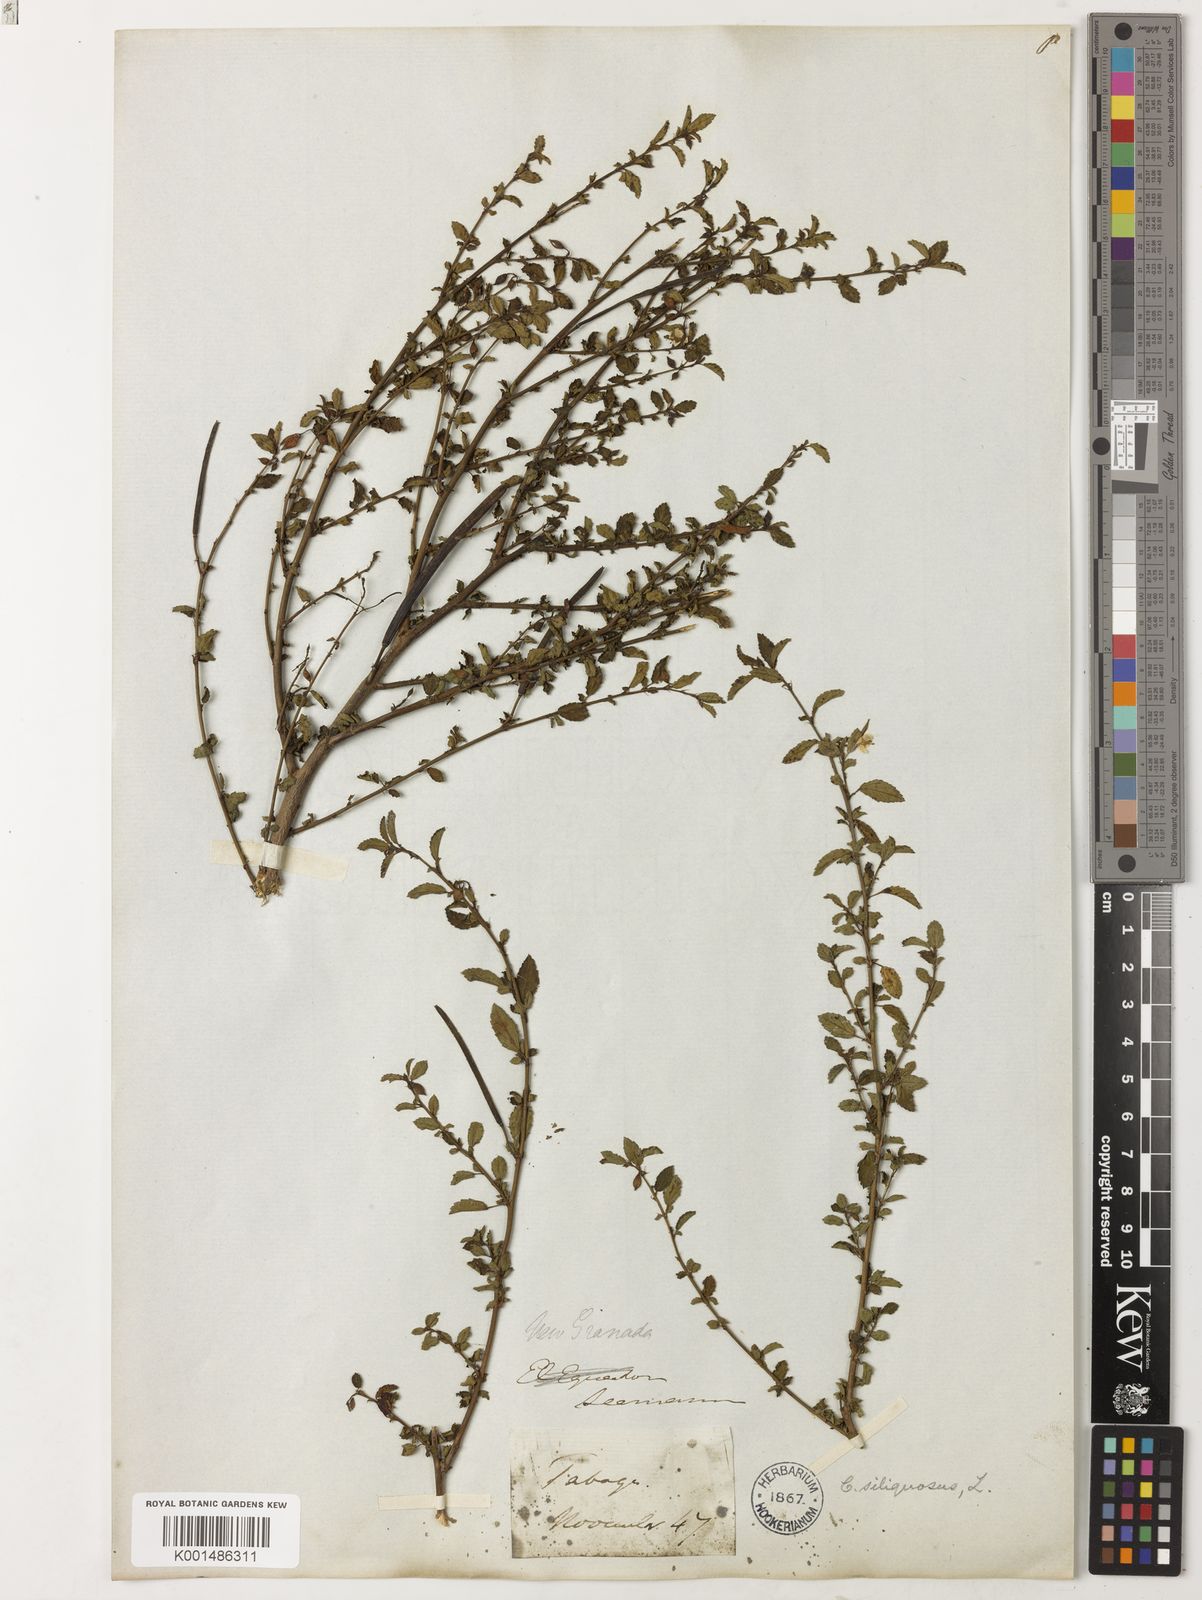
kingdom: Plantae
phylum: Tracheophyta
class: Magnoliopsida
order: Malvales
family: Malvaceae
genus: Corchorus
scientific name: Corchorus siliquosus
